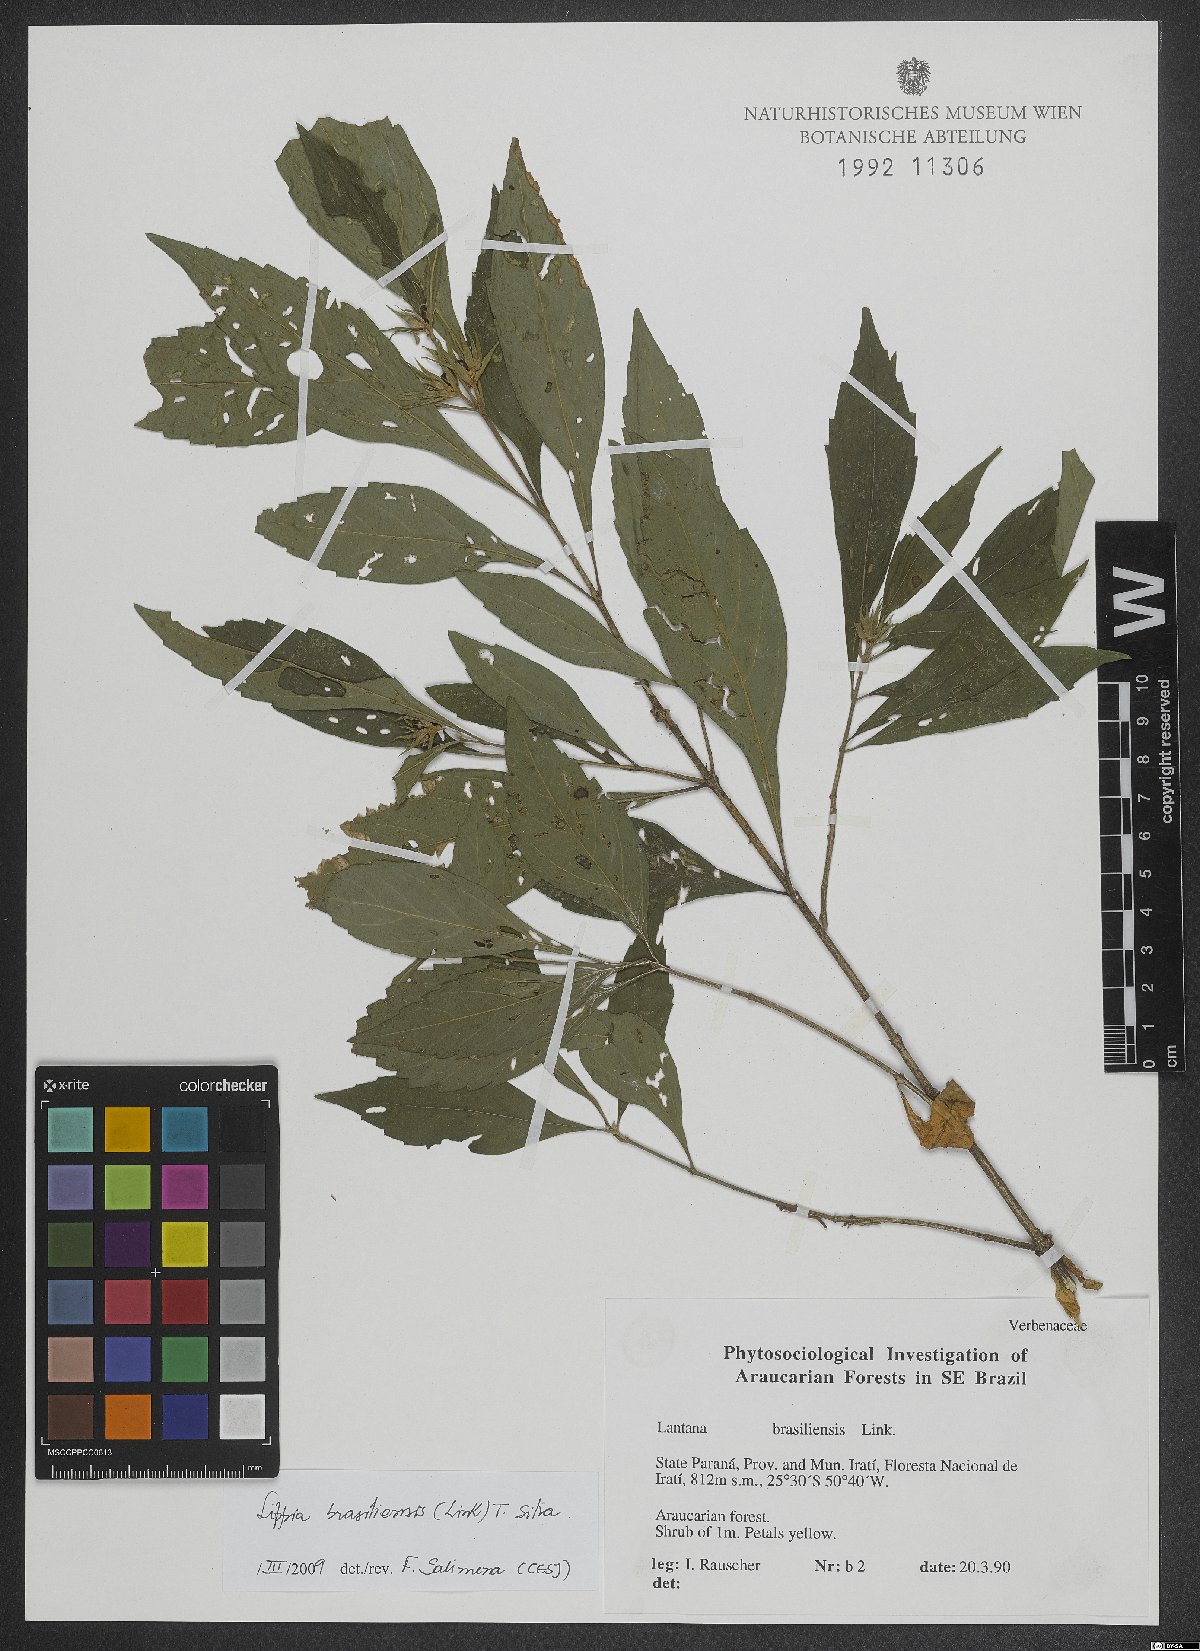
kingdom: Plantae
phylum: Tracheophyta
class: Magnoliopsida
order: Lamiales
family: Verbenaceae
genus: Lippia
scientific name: Lippia brasiliensis
